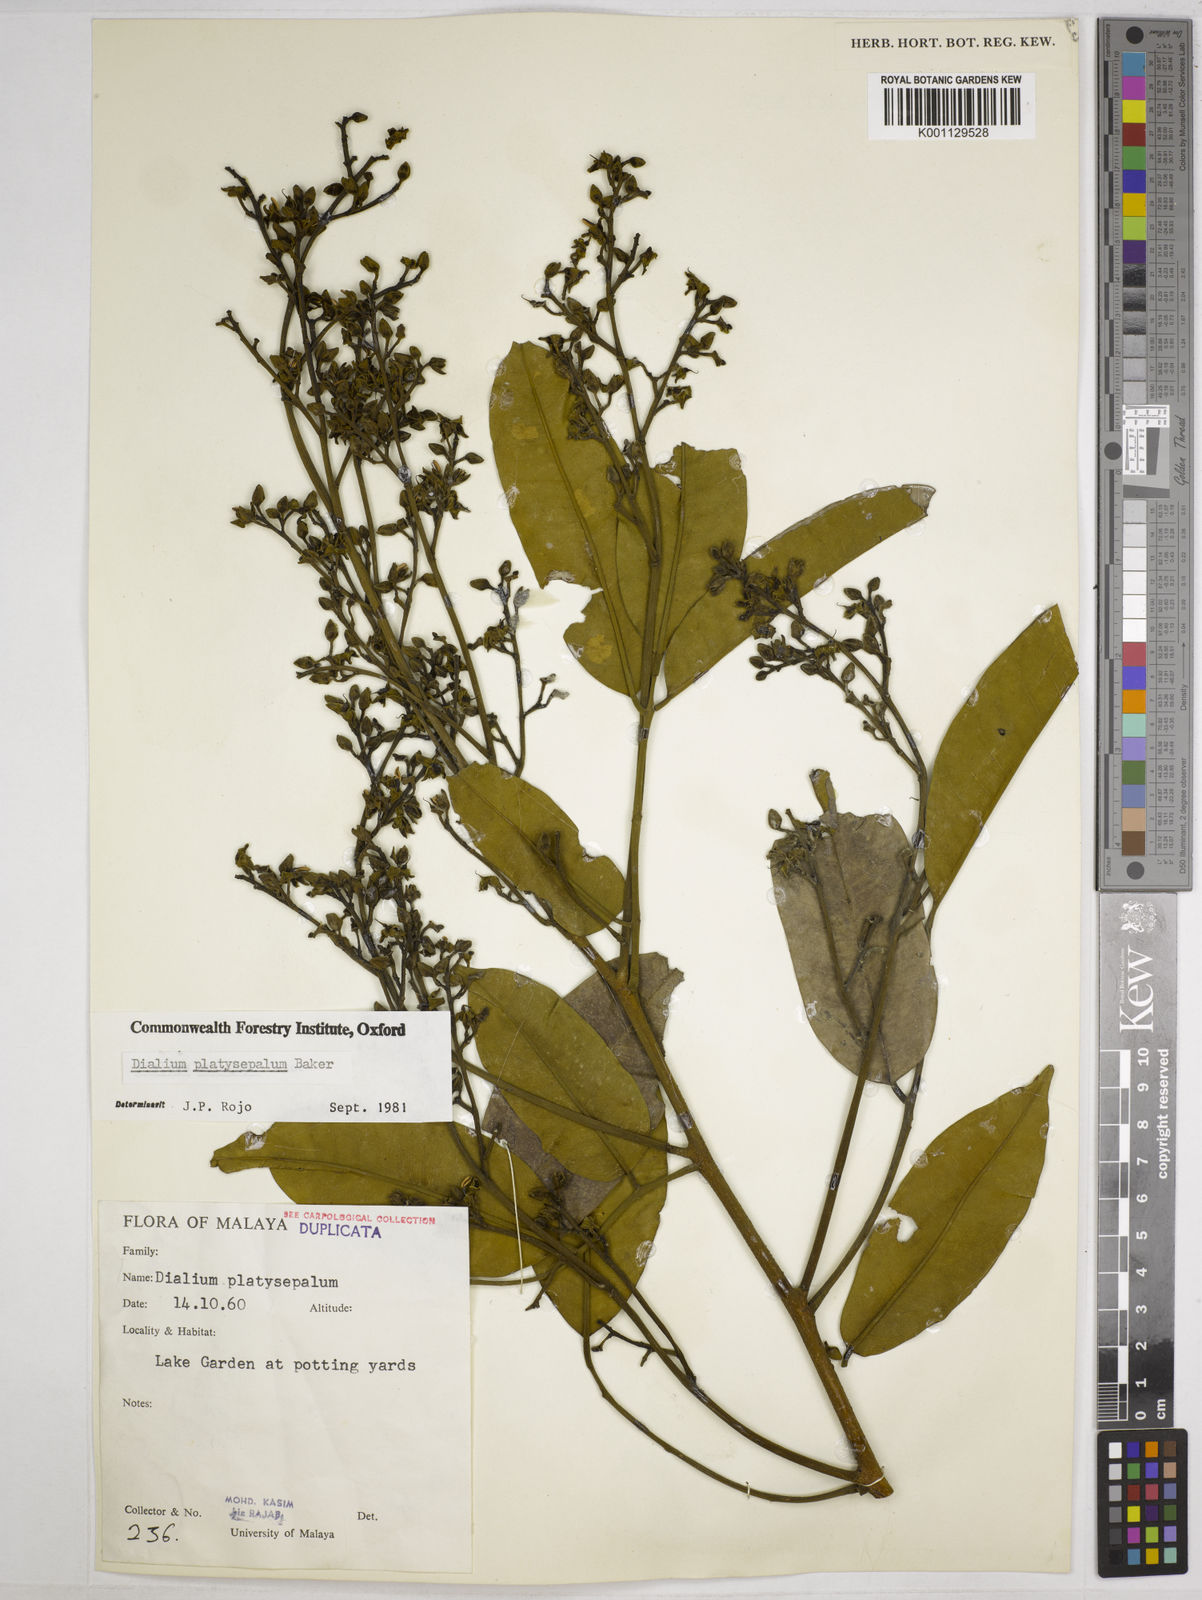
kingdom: Plantae
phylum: Tracheophyta
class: Magnoliopsida
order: Fabales
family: Fabaceae
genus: Dialium
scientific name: Dialium platysepalum
